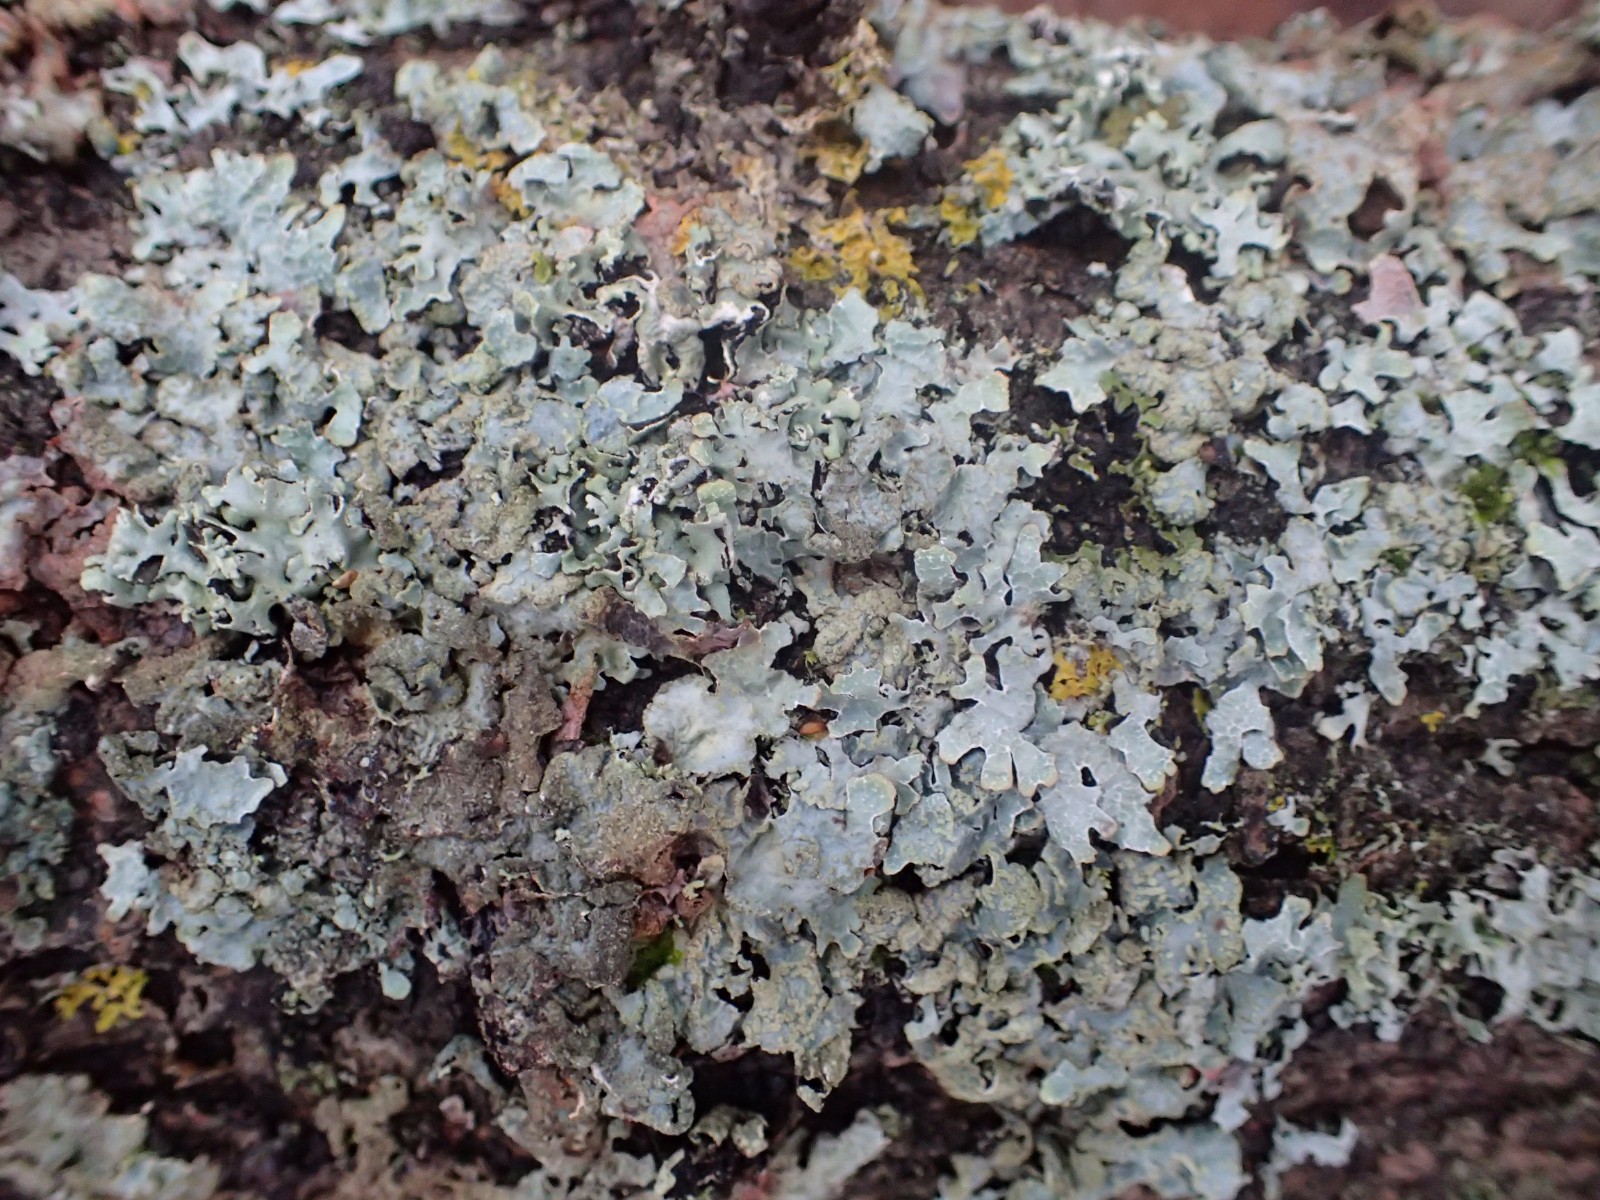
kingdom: Fungi
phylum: Ascomycota
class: Lecanoromycetes
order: Lecanorales
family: Parmeliaceae
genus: Parmelia
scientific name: Parmelia sulcata
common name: rynket skållav
